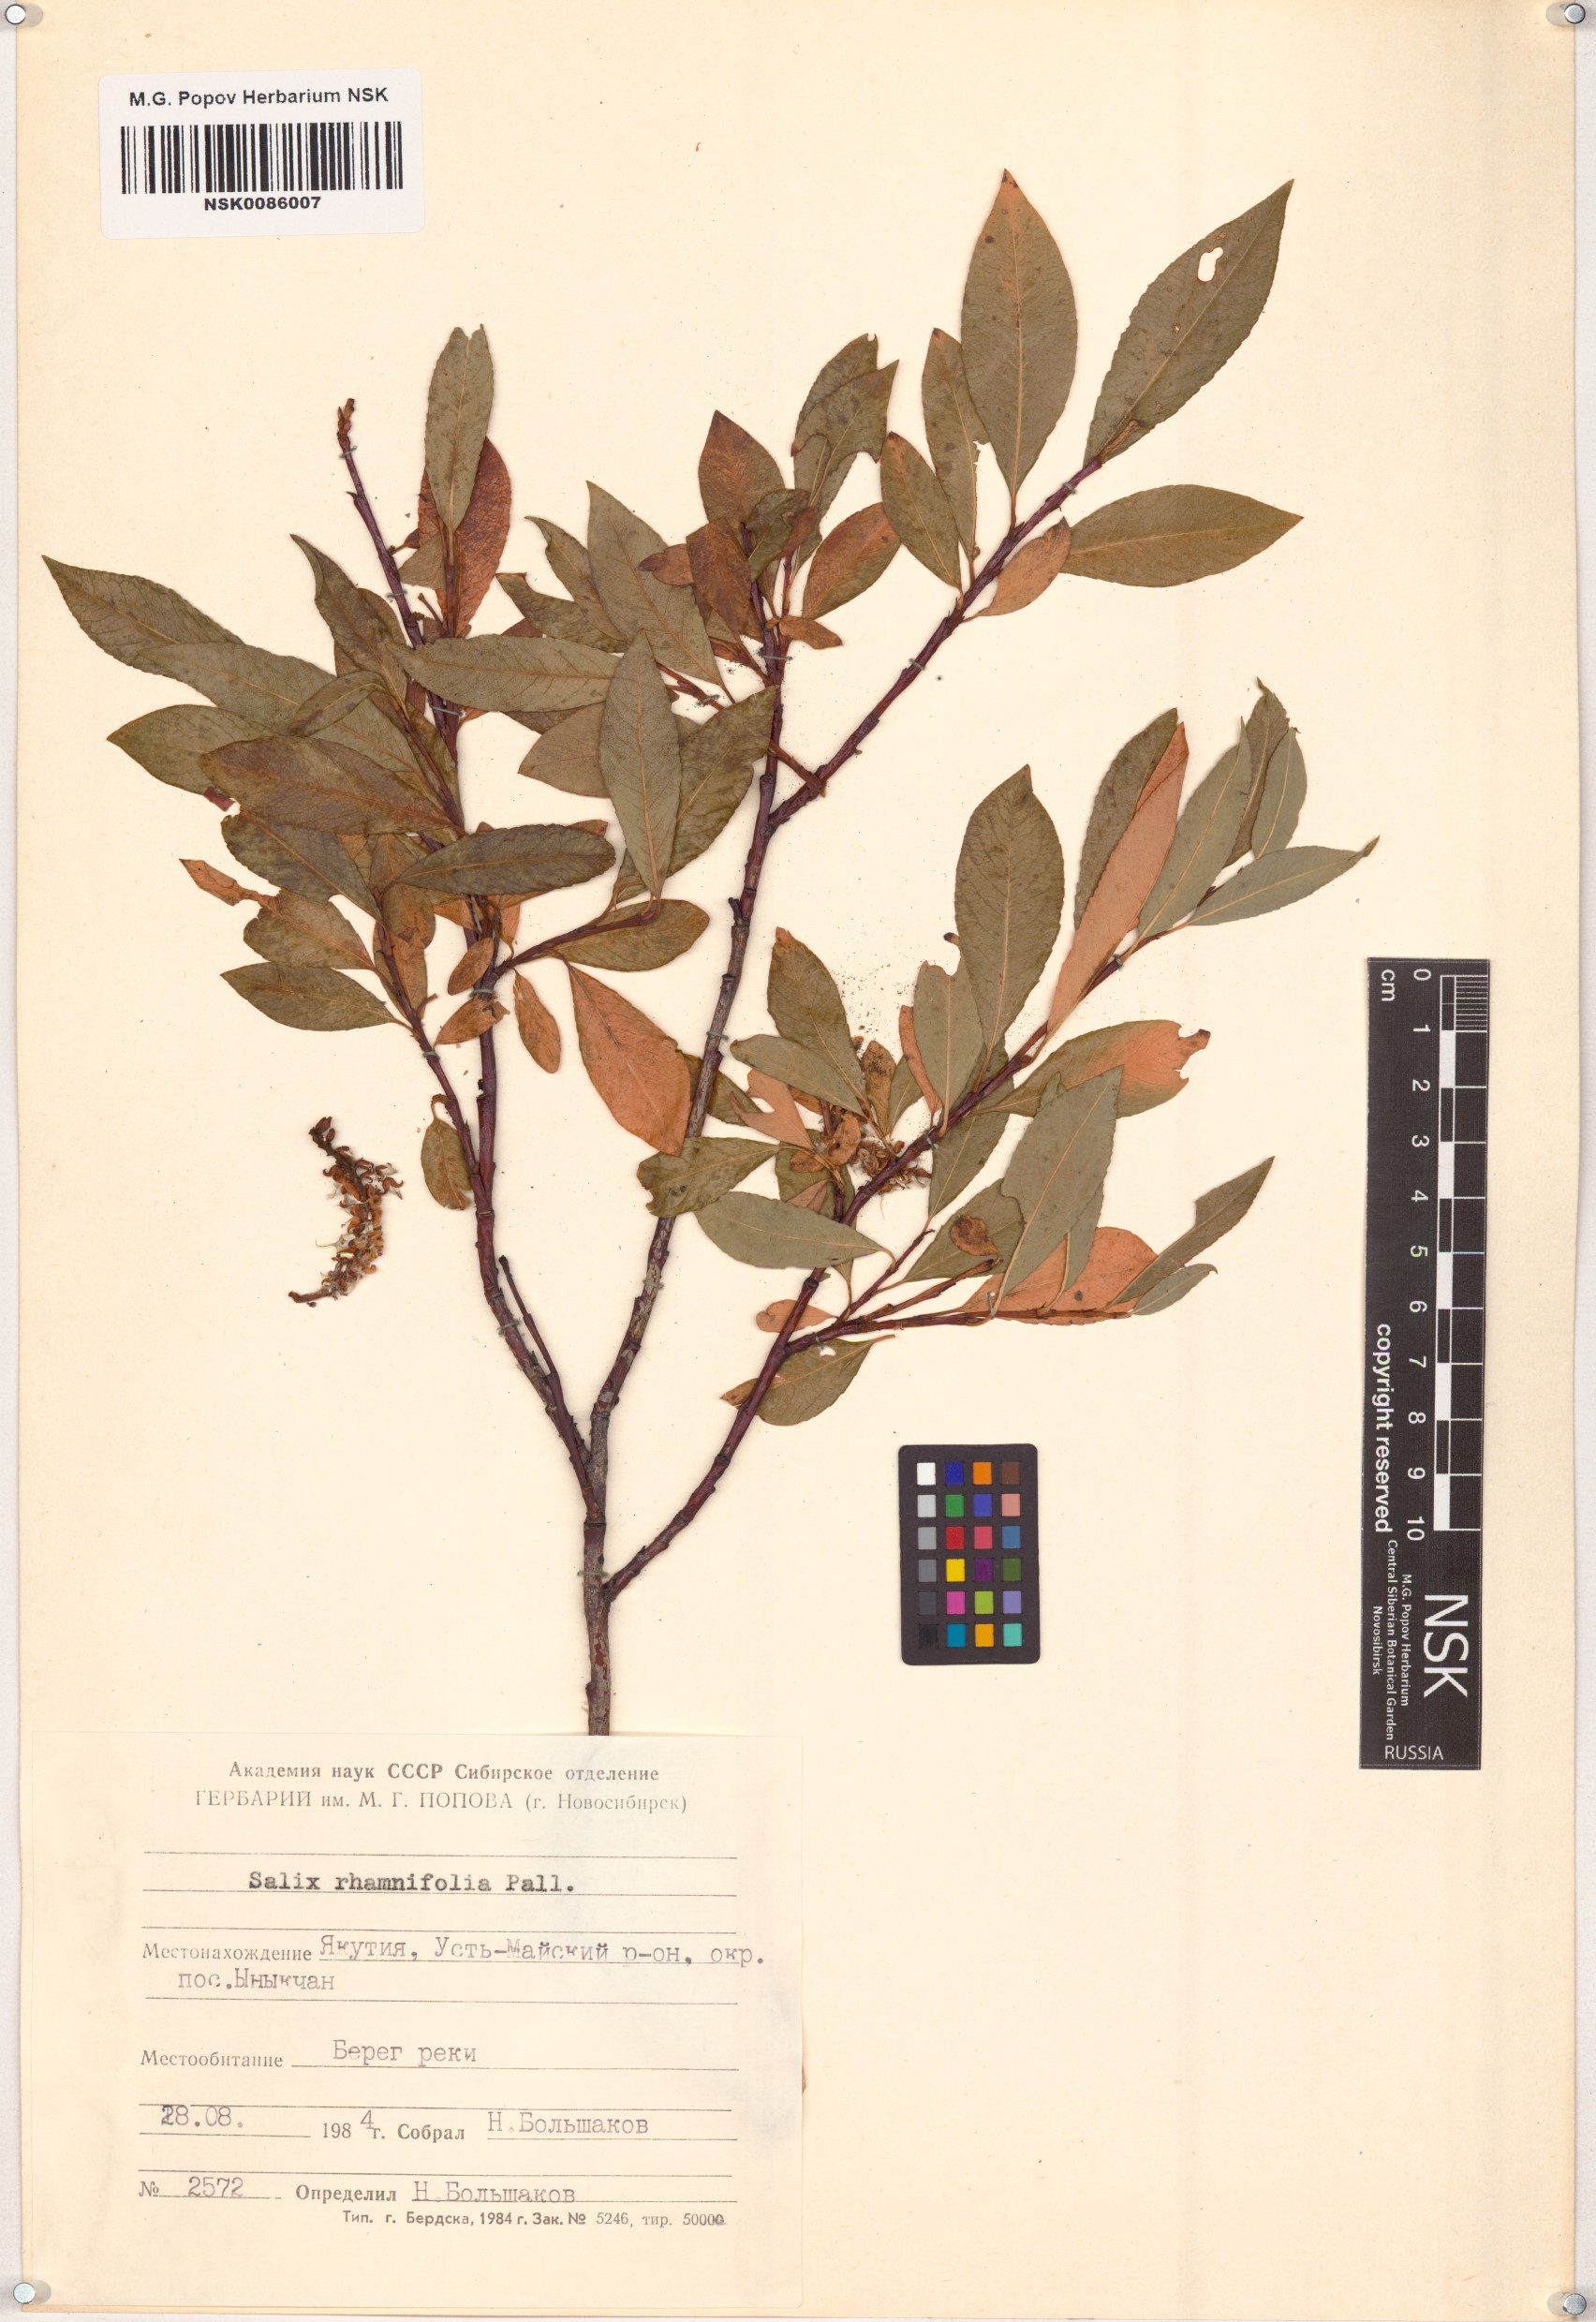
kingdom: Plantae
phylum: Tracheophyta
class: Magnoliopsida
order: Malpighiales
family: Salicaceae
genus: Salix
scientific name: Salix rhamnifolia
